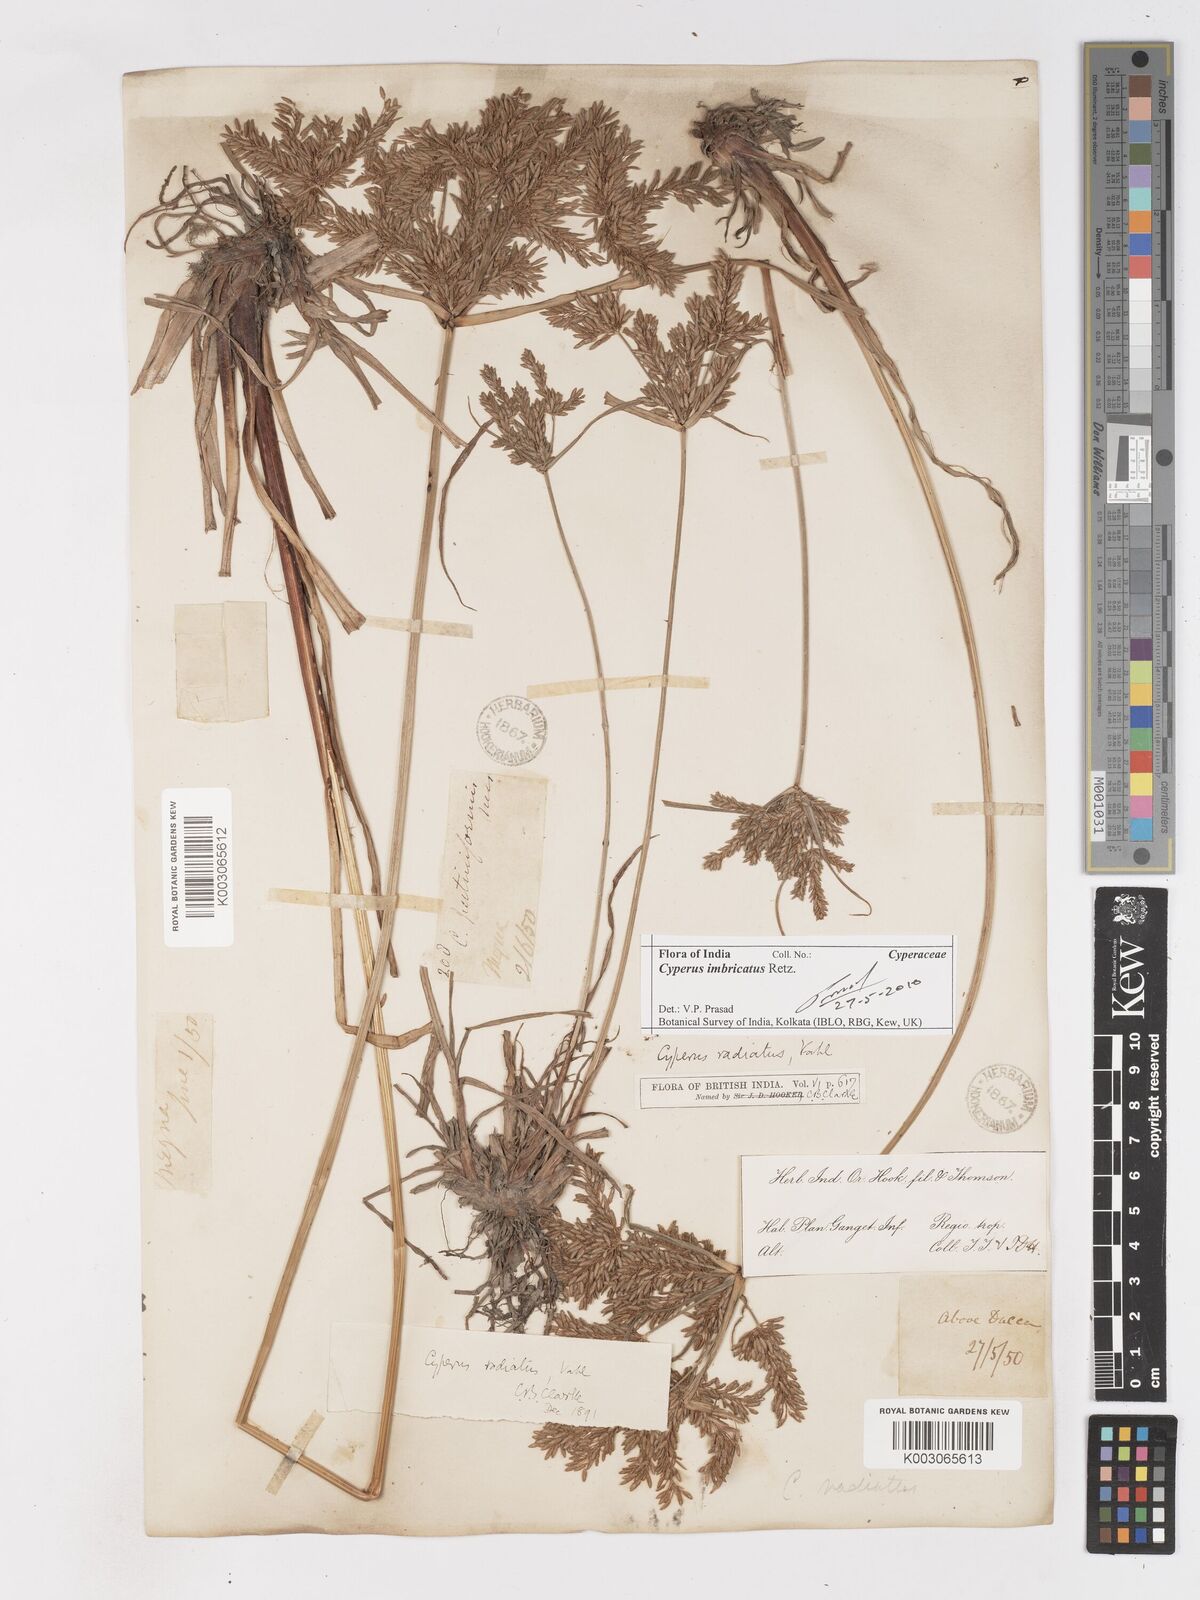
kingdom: Plantae
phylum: Tracheophyta
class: Liliopsida
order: Poales
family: Cyperaceae
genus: Cyperus
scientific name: Cyperus imbricatus
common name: Shingle flatsedge
